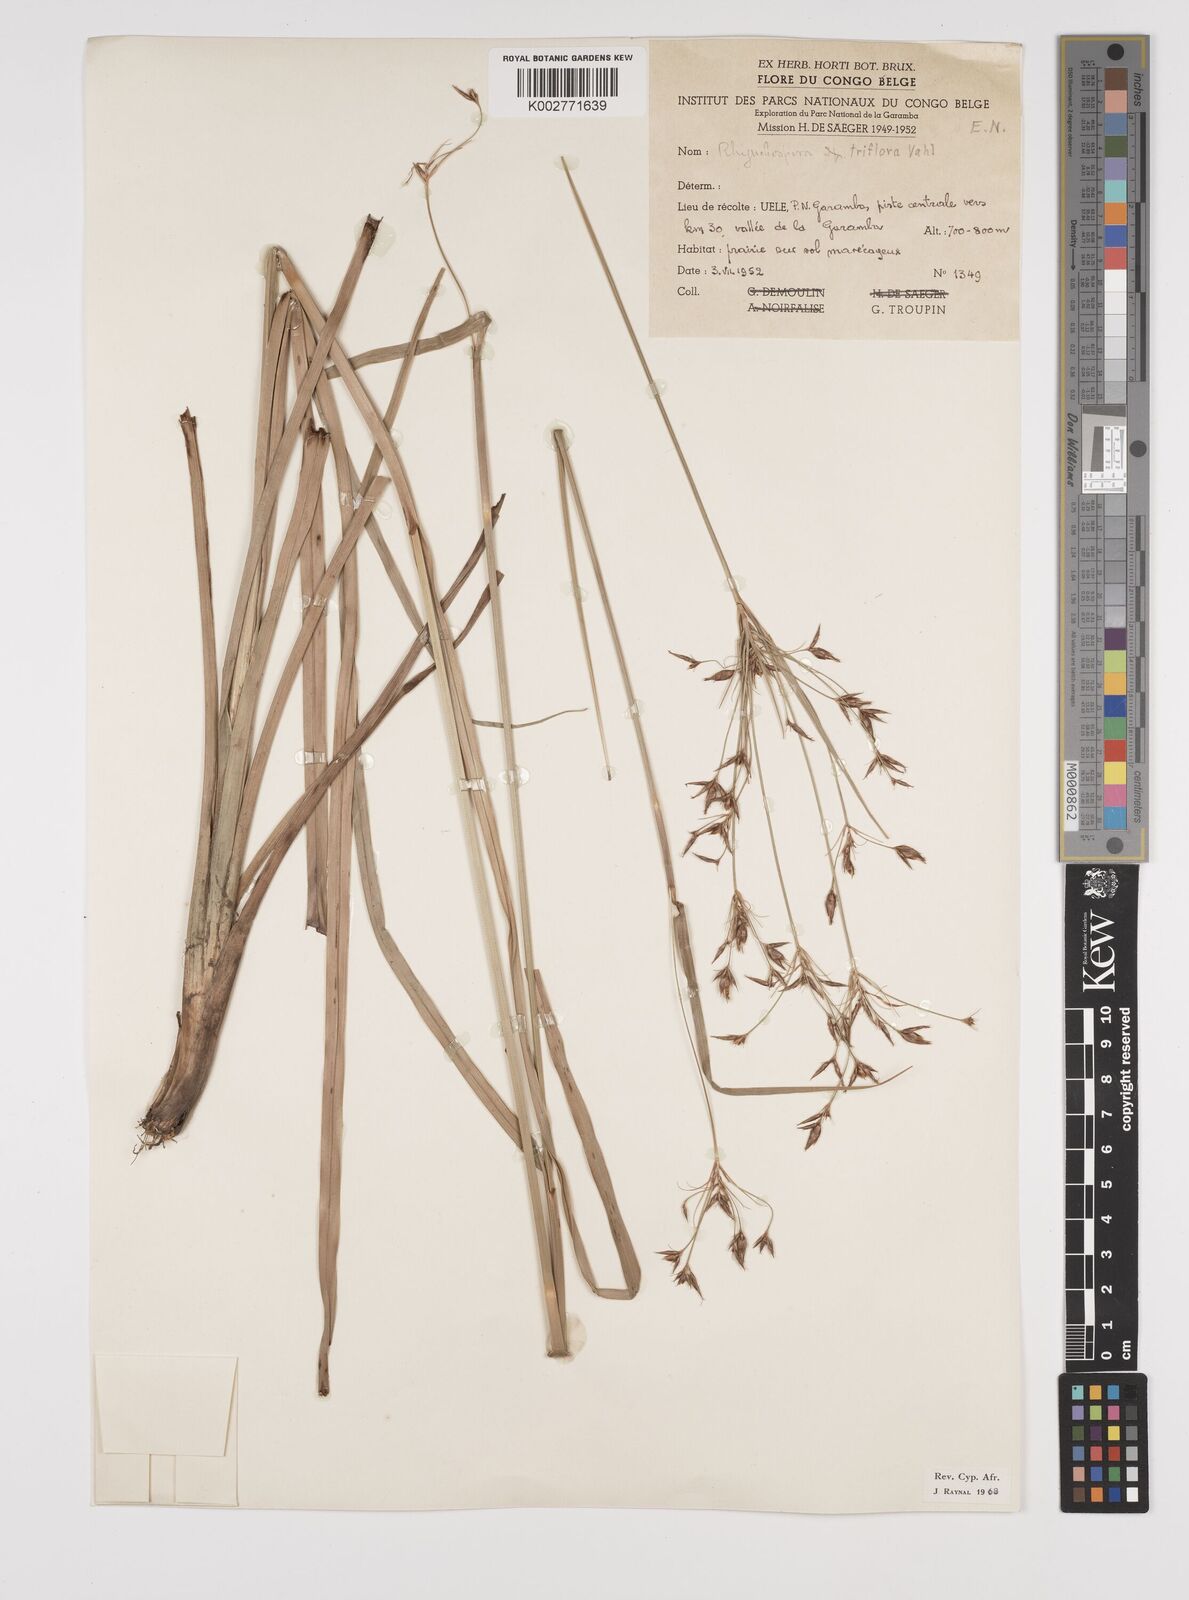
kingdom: Plantae
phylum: Tracheophyta
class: Liliopsida
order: Poales
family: Cyperaceae
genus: Rhynchospora
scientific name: Rhynchospora triflora
